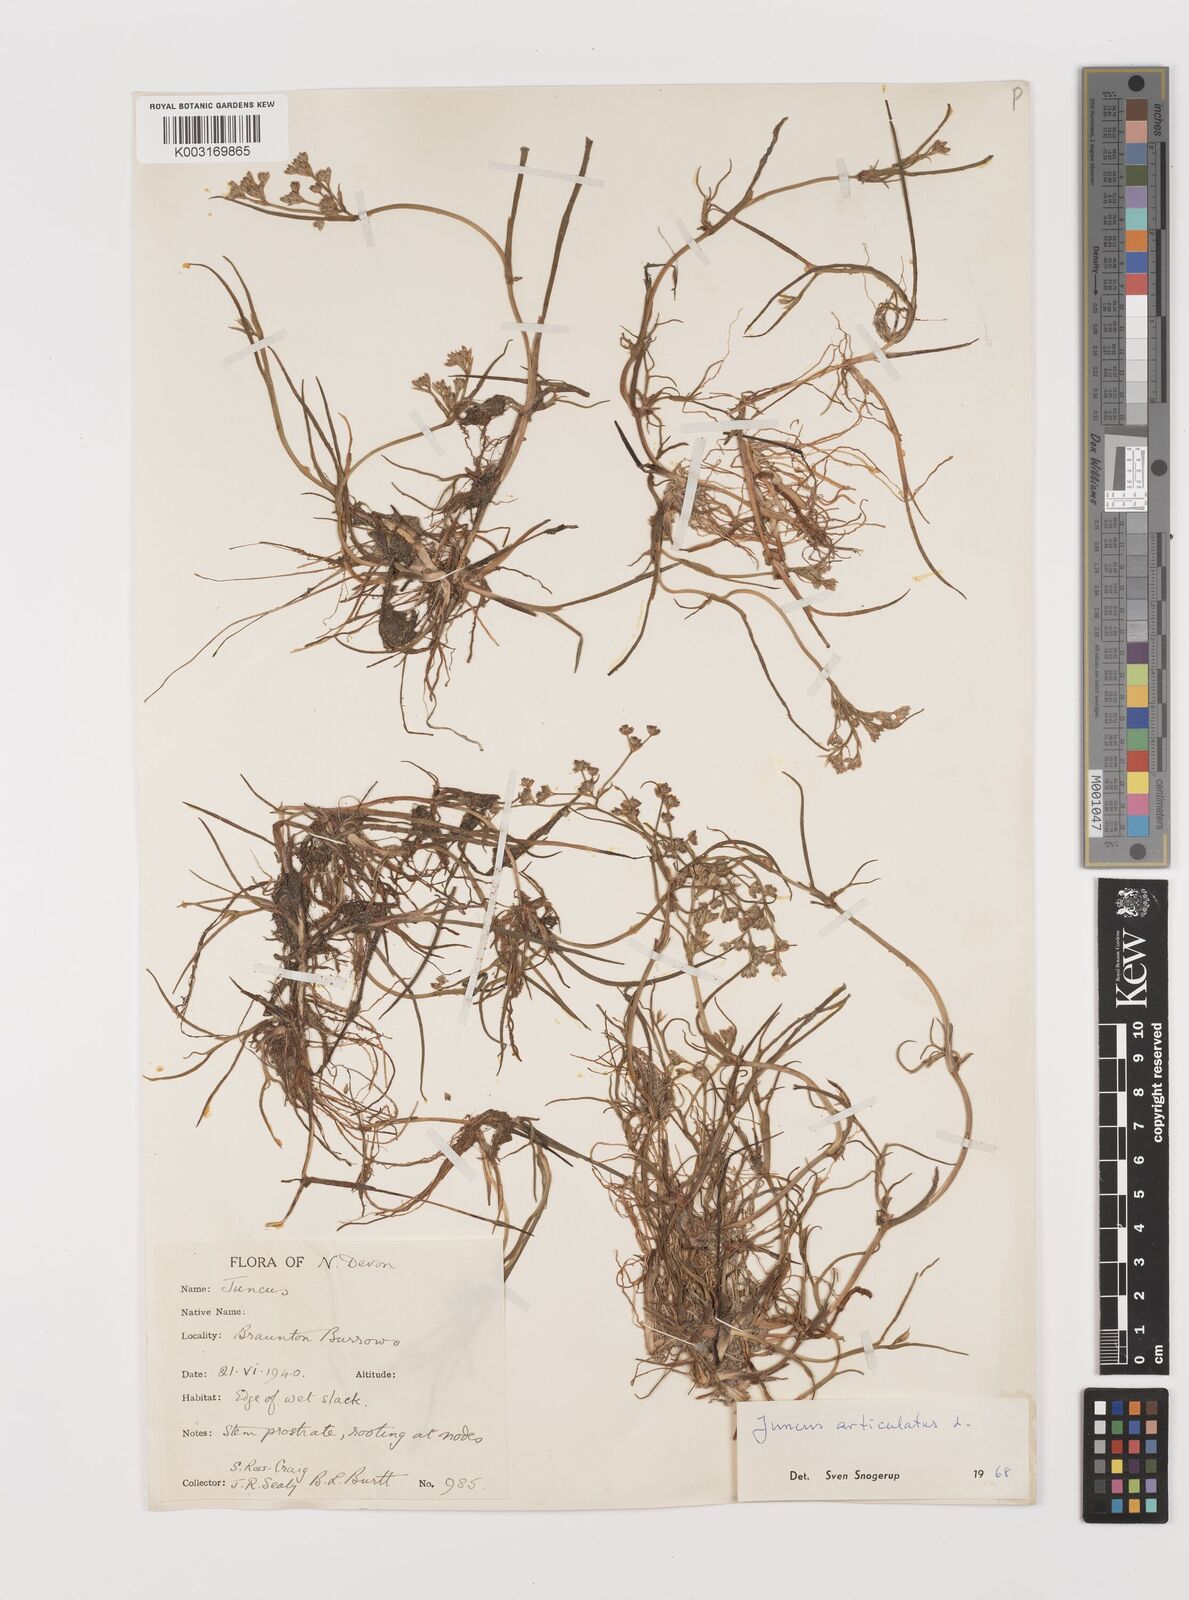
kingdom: Plantae
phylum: Tracheophyta
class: Liliopsida
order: Poales
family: Juncaceae
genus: Juncus
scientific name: Juncus articulatus
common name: Jointed rush
